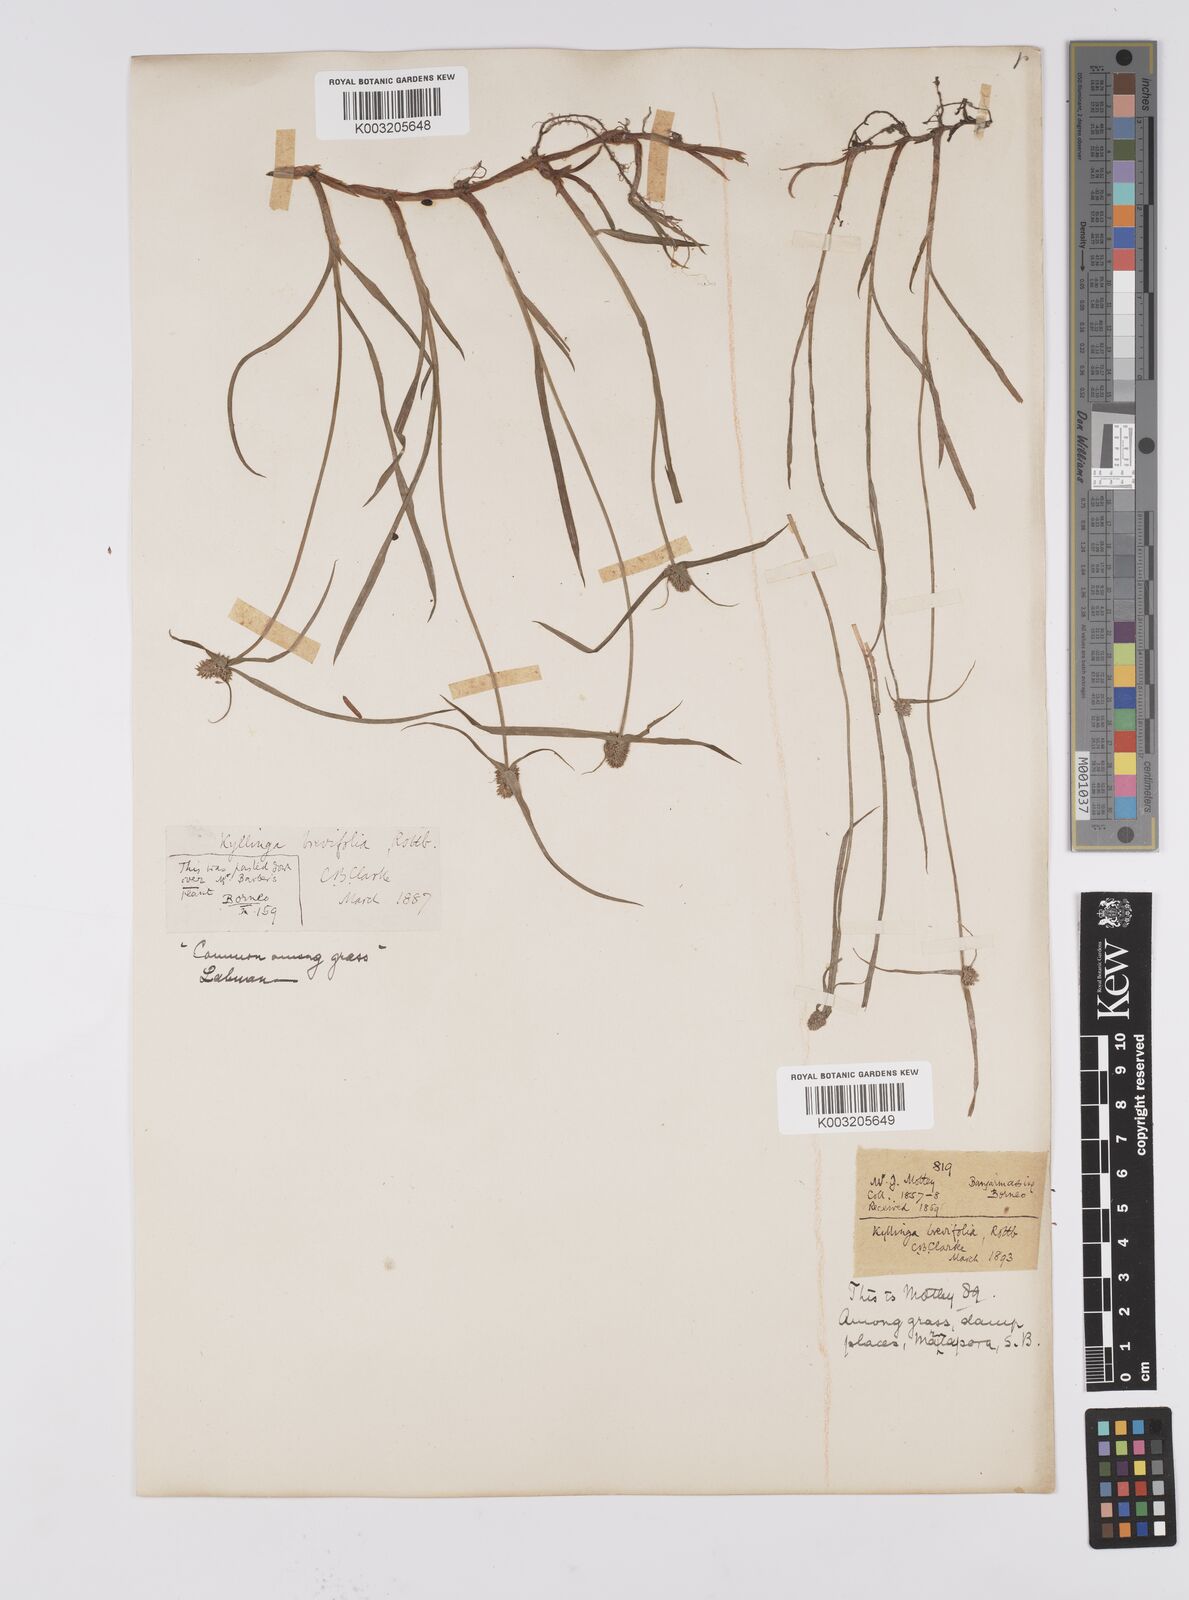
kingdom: Plantae
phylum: Tracheophyta
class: Liliopsida
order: Poales
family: Cyperaceae
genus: Cyperus
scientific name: Cyperus brevifolius
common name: Globe kyllinga
